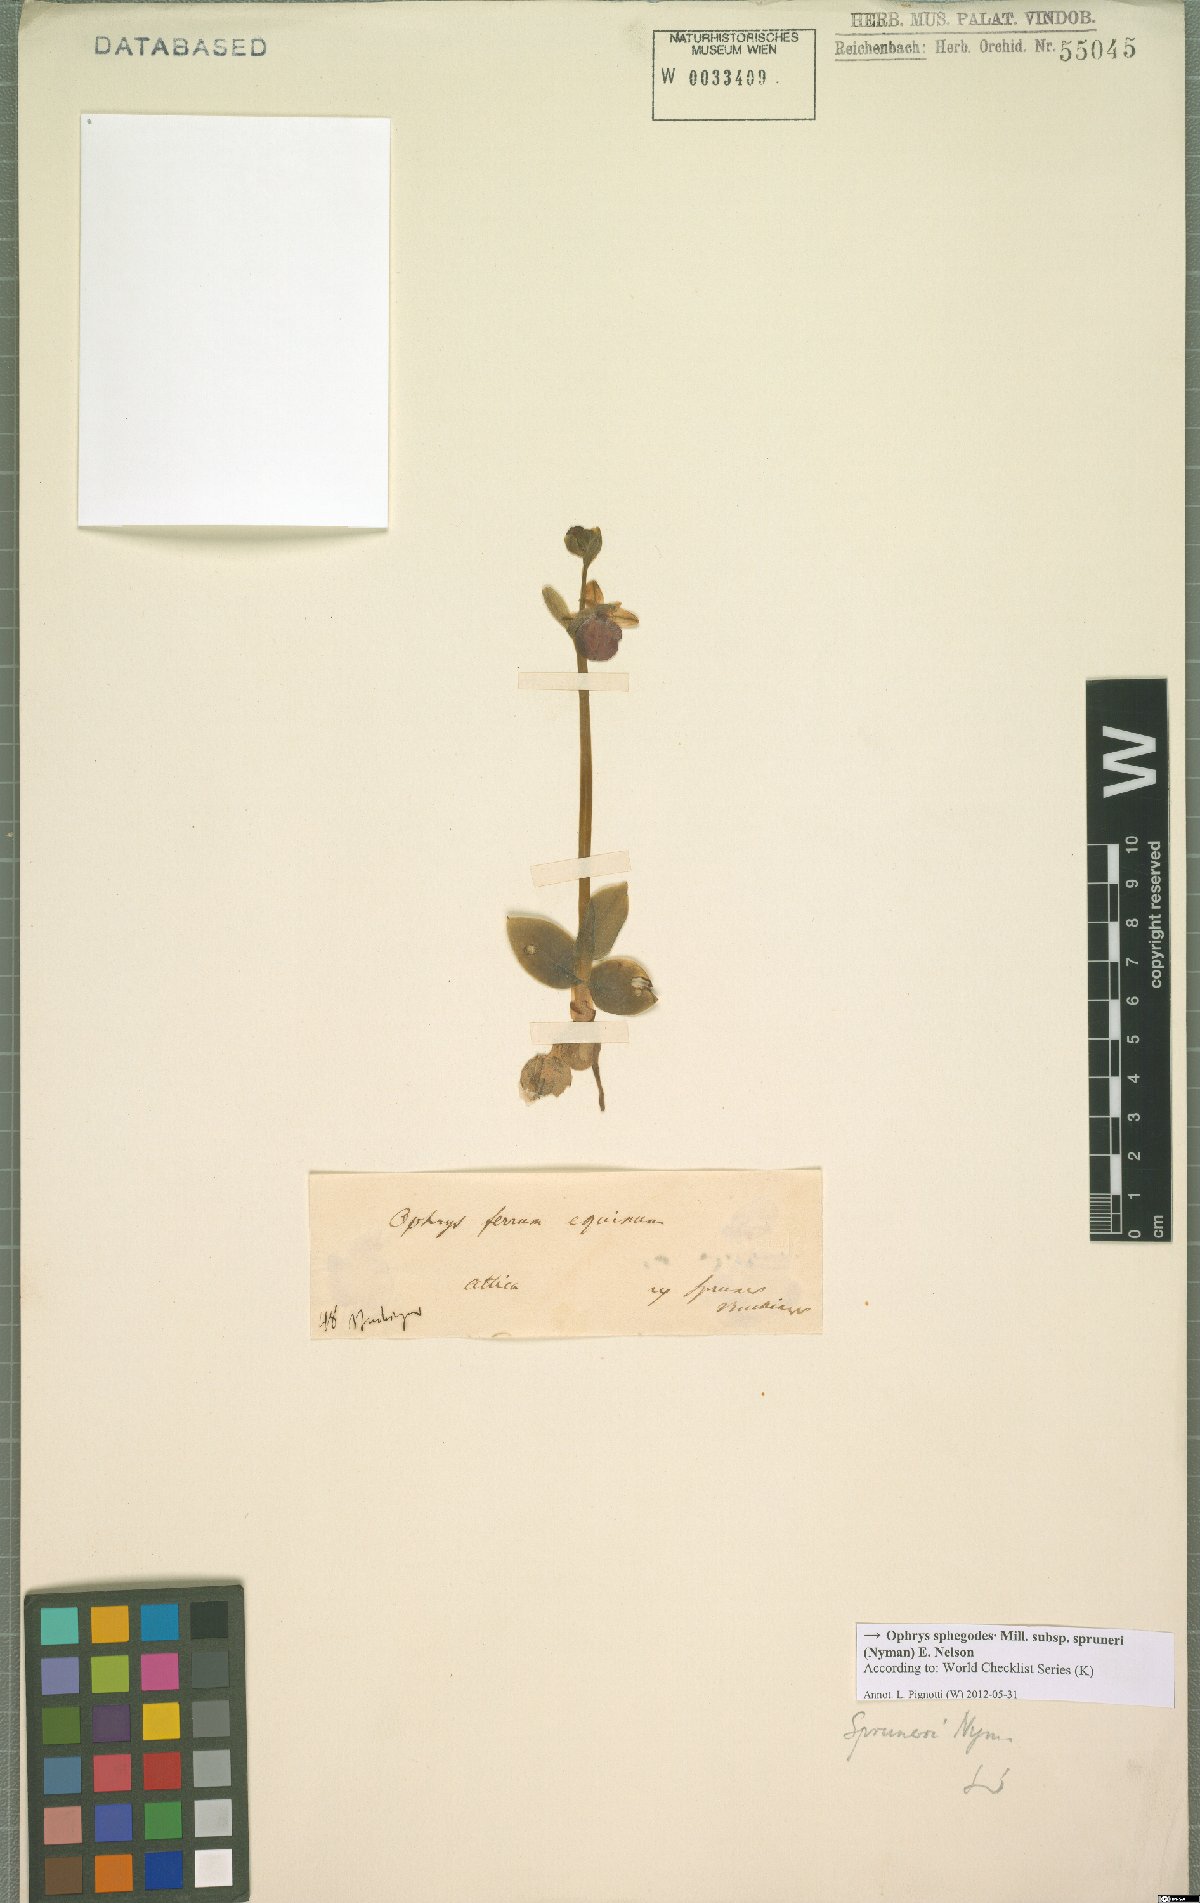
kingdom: Plantae
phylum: Tracheophyta
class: Liliopsida
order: Asparagales
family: Orchidaceae
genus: Ophrys
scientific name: Ophrys sphegodes
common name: Early spider-orchid
